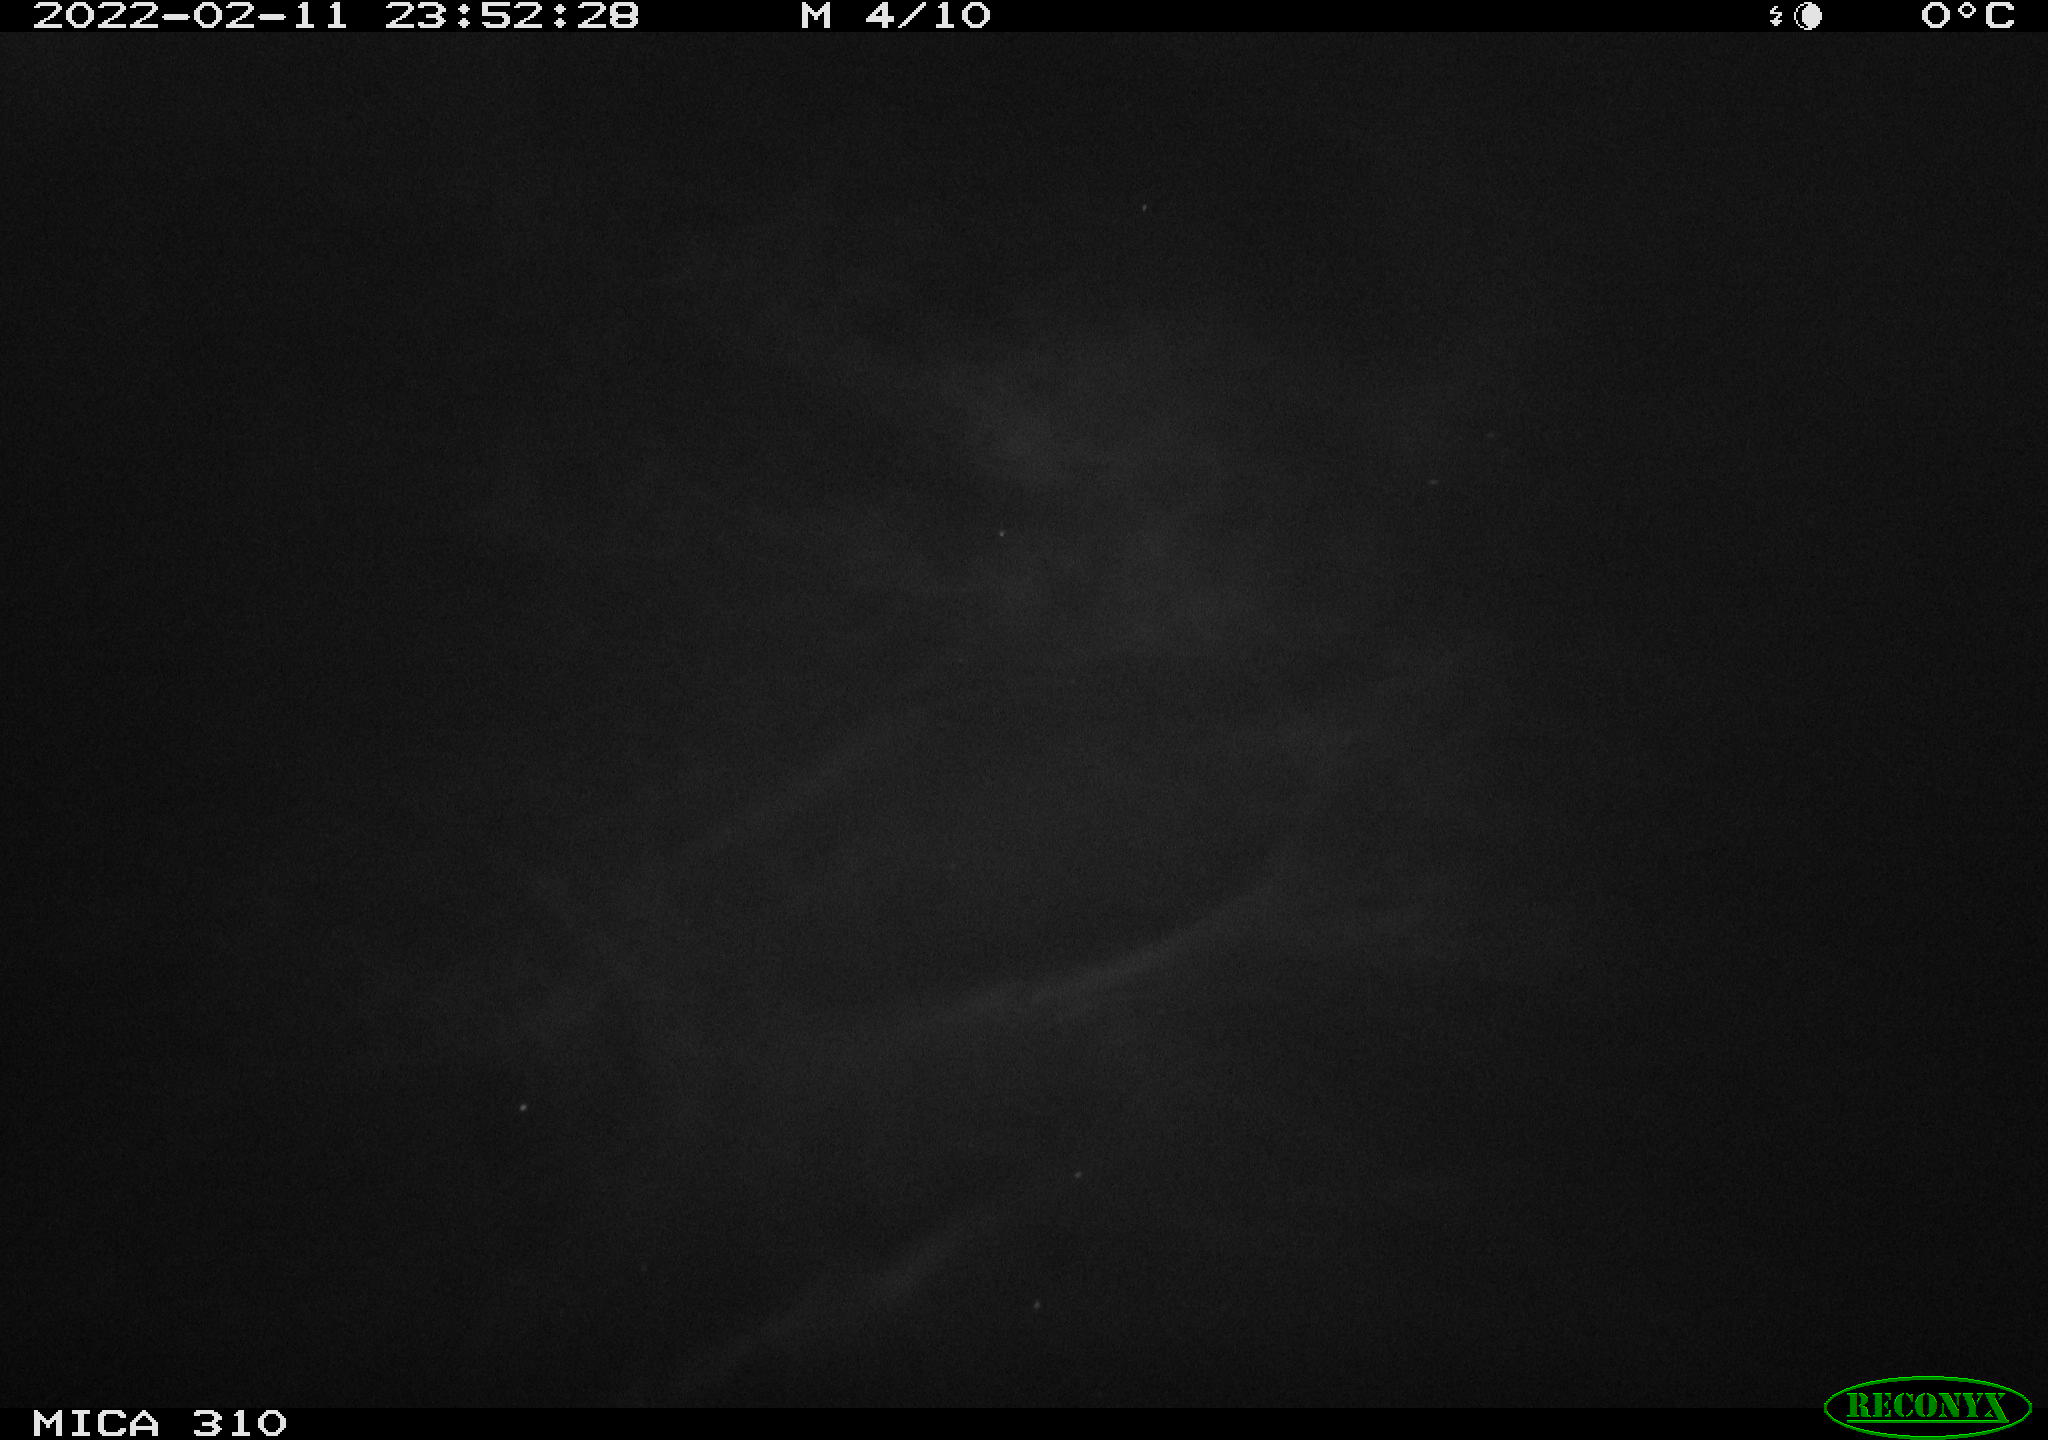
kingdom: Animalia
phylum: Chordata
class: Mammalia
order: Rodentia
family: Cricetidae
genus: Ondatra
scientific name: Ondatra zibethicus
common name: Muskrat
